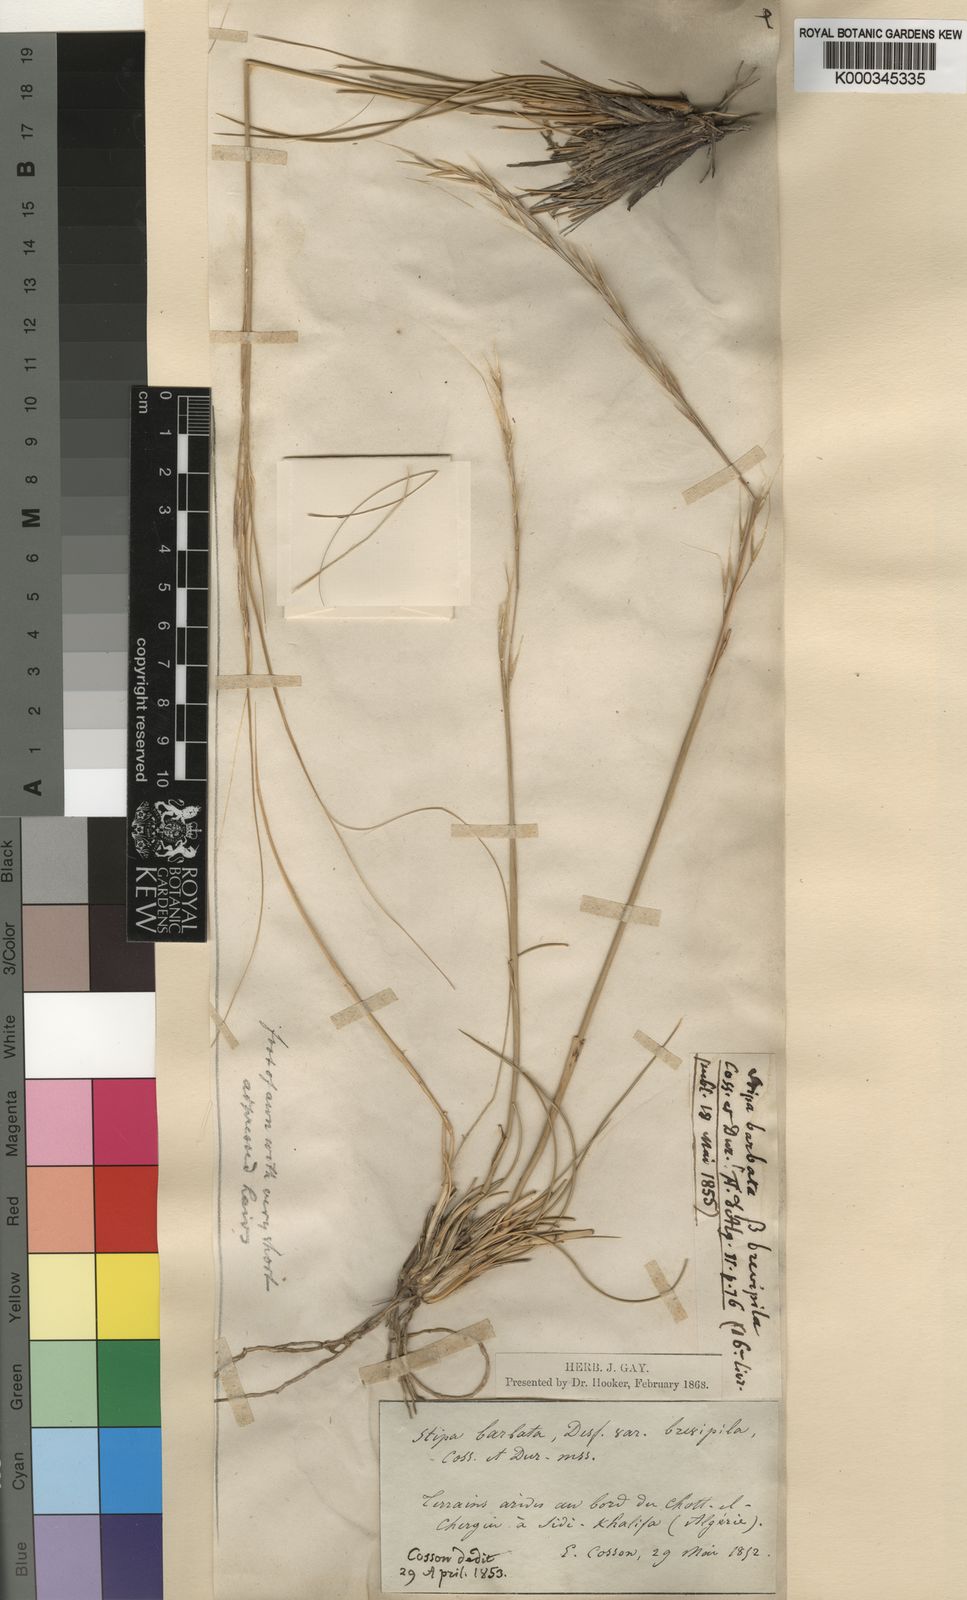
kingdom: Plantae
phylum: Tracheophyta
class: Liliopsida
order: Poales
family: Poaceae
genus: Stipa
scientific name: Stipa barbata
